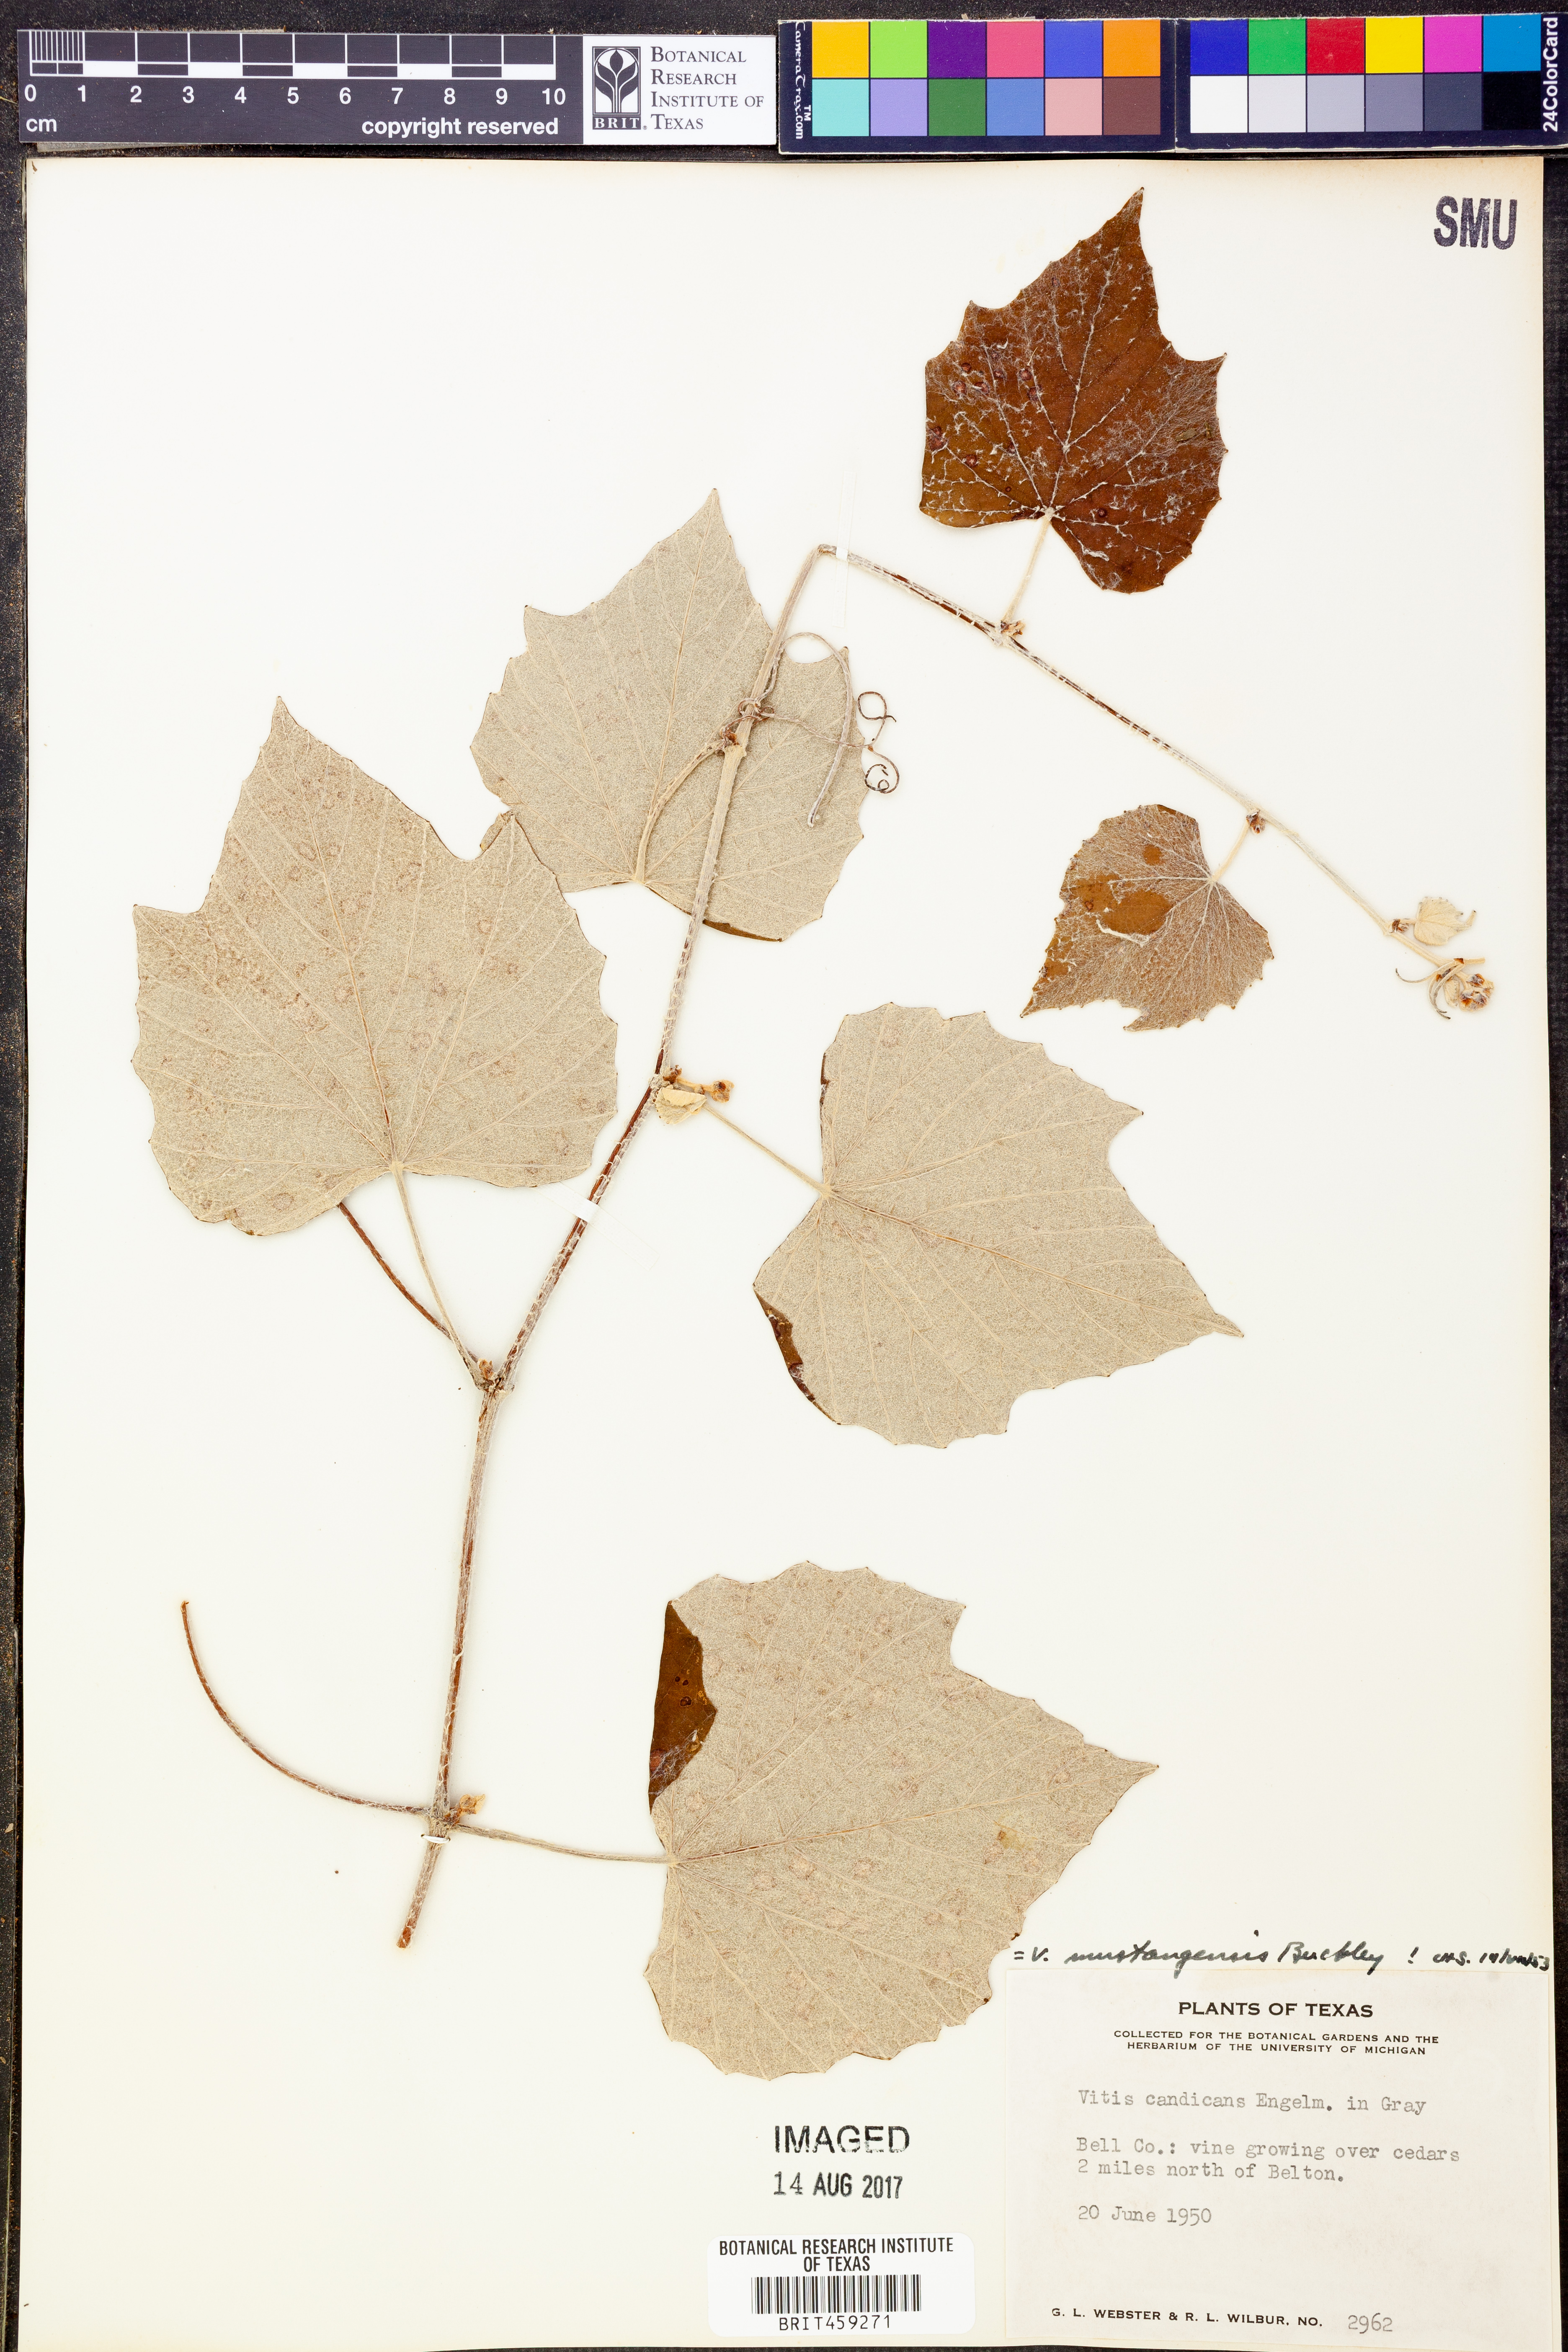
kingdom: Plantae
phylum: Tracheophyta
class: Magnoliopsida
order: Vitales
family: Vitaceae
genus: Vitis
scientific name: Vitis mustangensis
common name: Mustang grape
